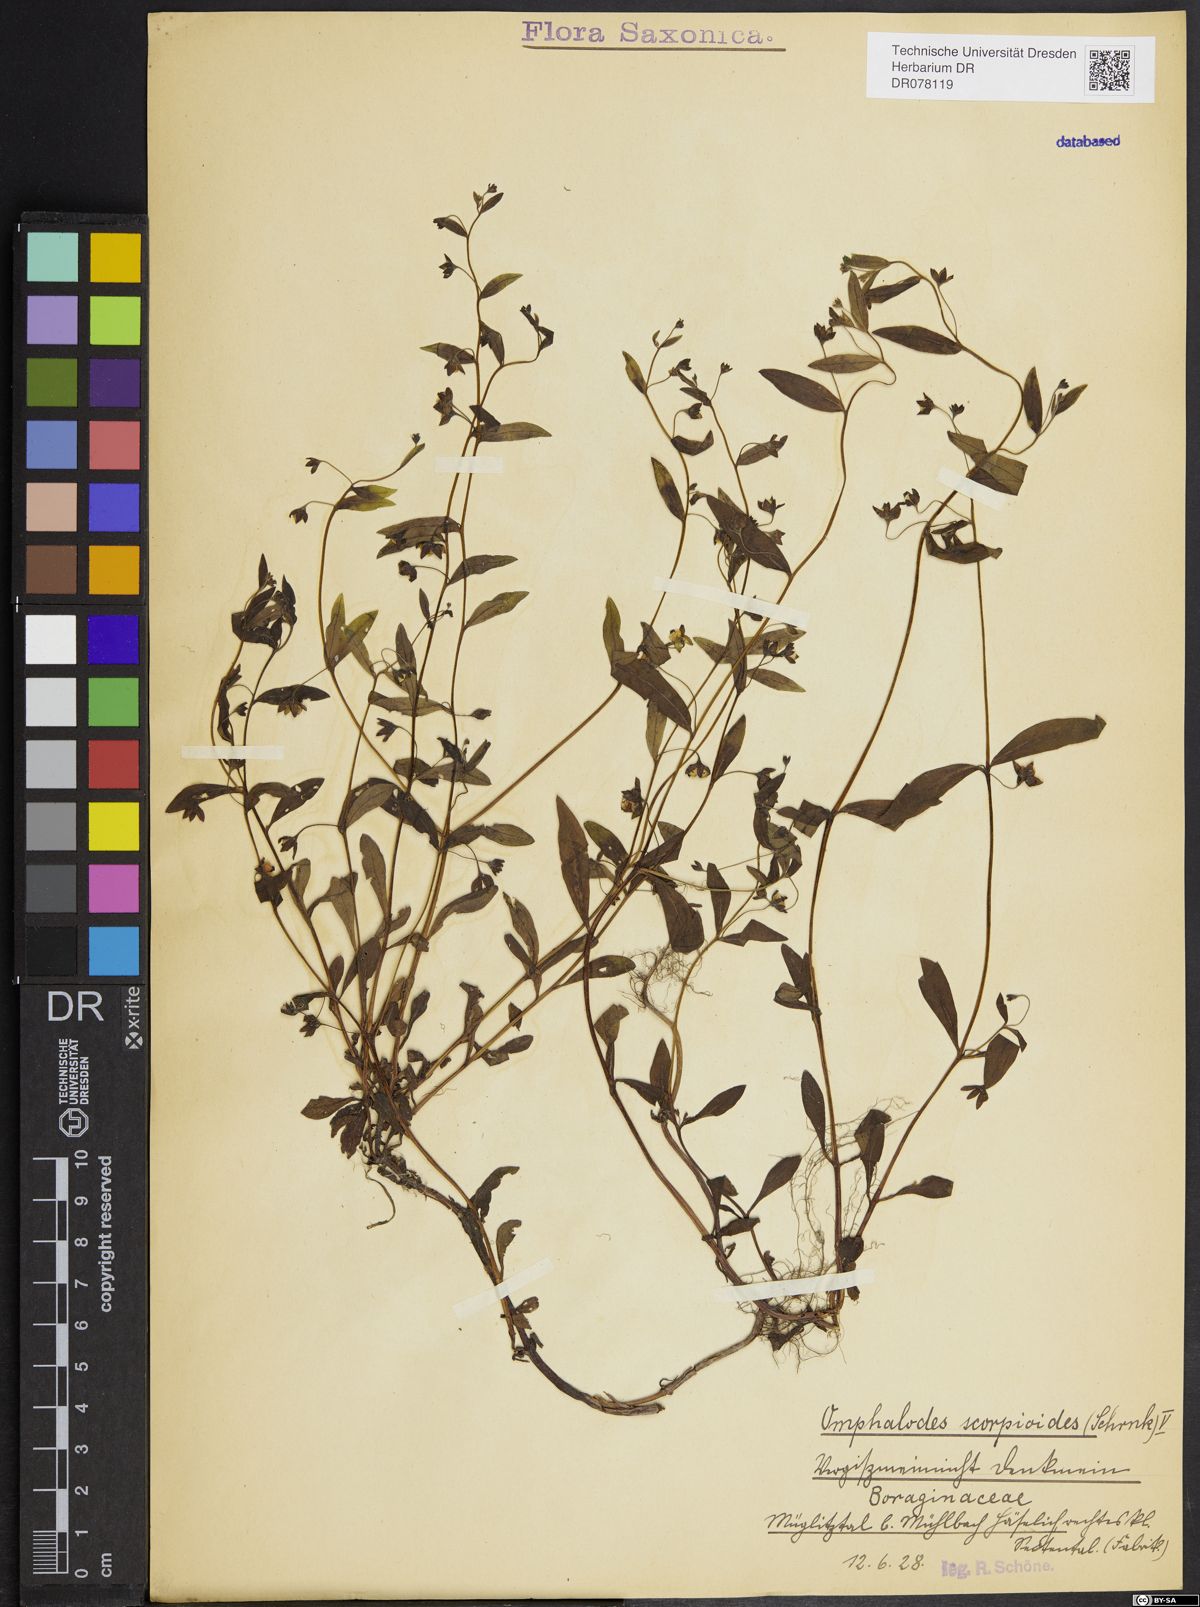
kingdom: Plantae
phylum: Tracheophyta
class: Magnoliopsida
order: Boraginales
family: Boraginaceae
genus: Memoremea
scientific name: Memoremea scorpioides
